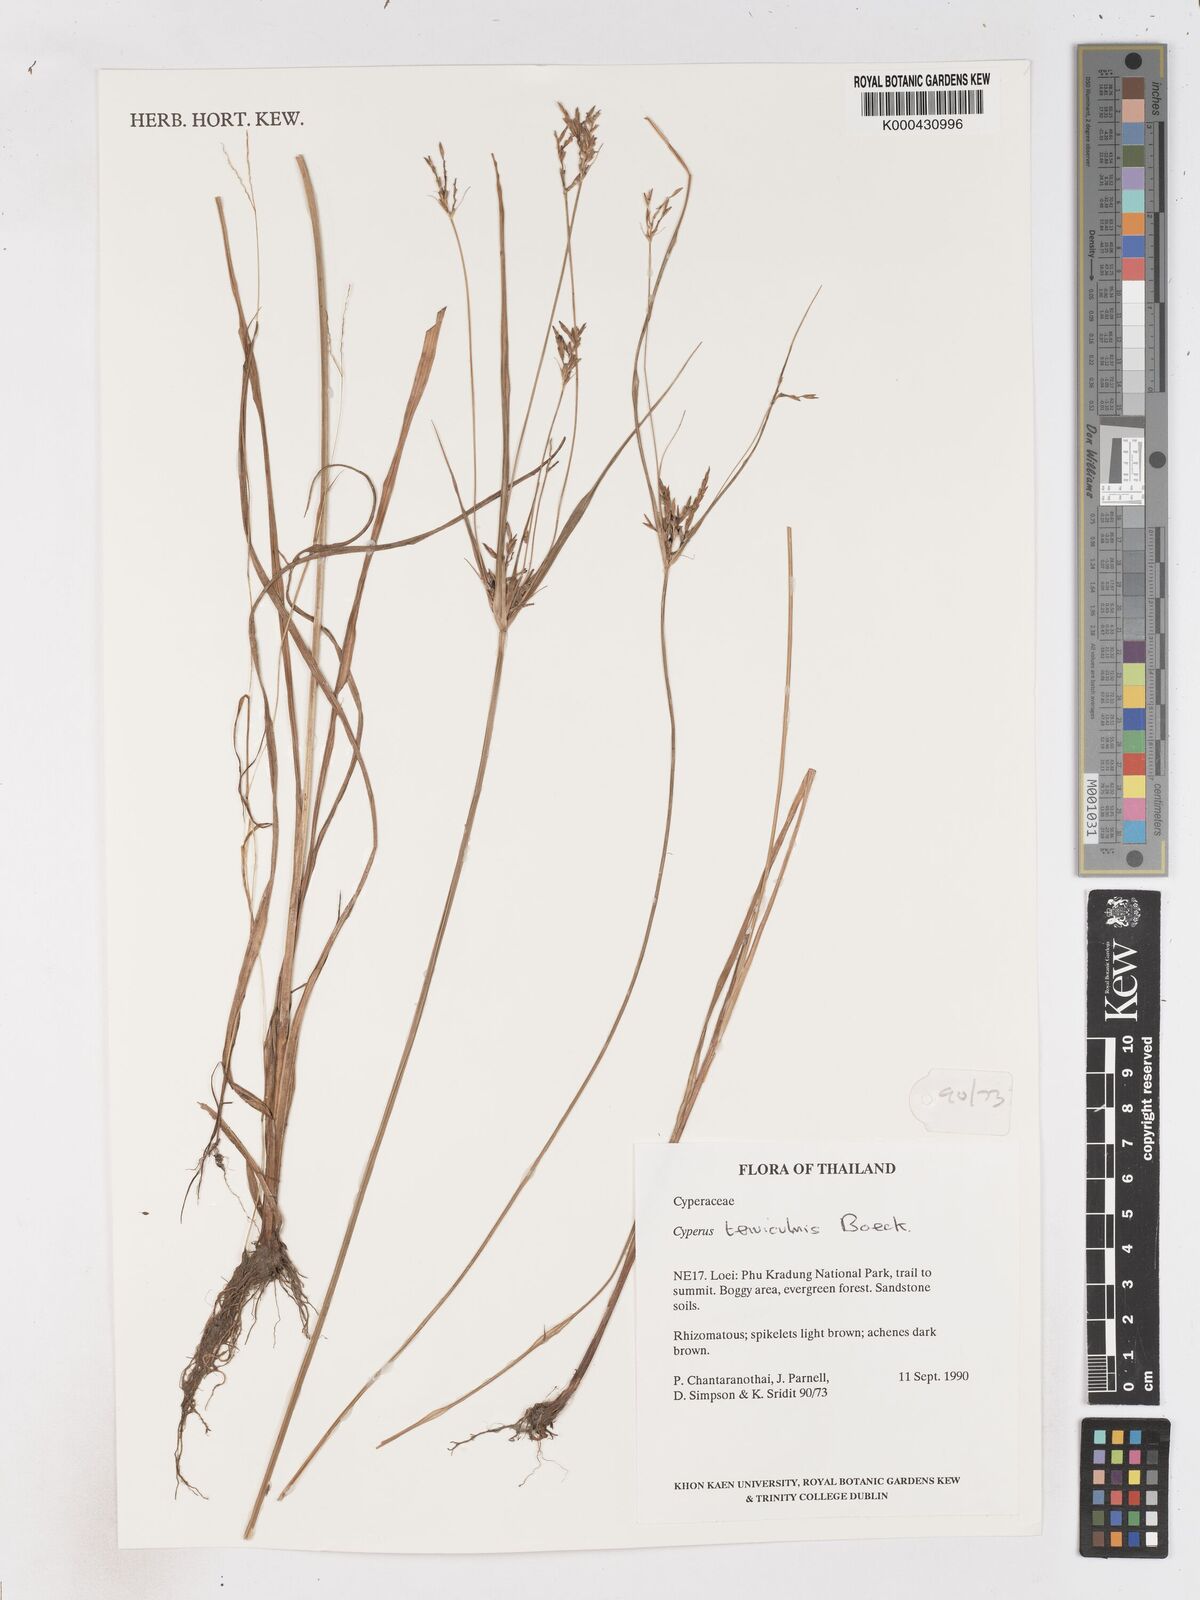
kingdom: Plantae
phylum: Tracheophyta
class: Liliopsida
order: Poales
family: Cyperaceae
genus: Cyperus
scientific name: Cyperus tenuiculmis
